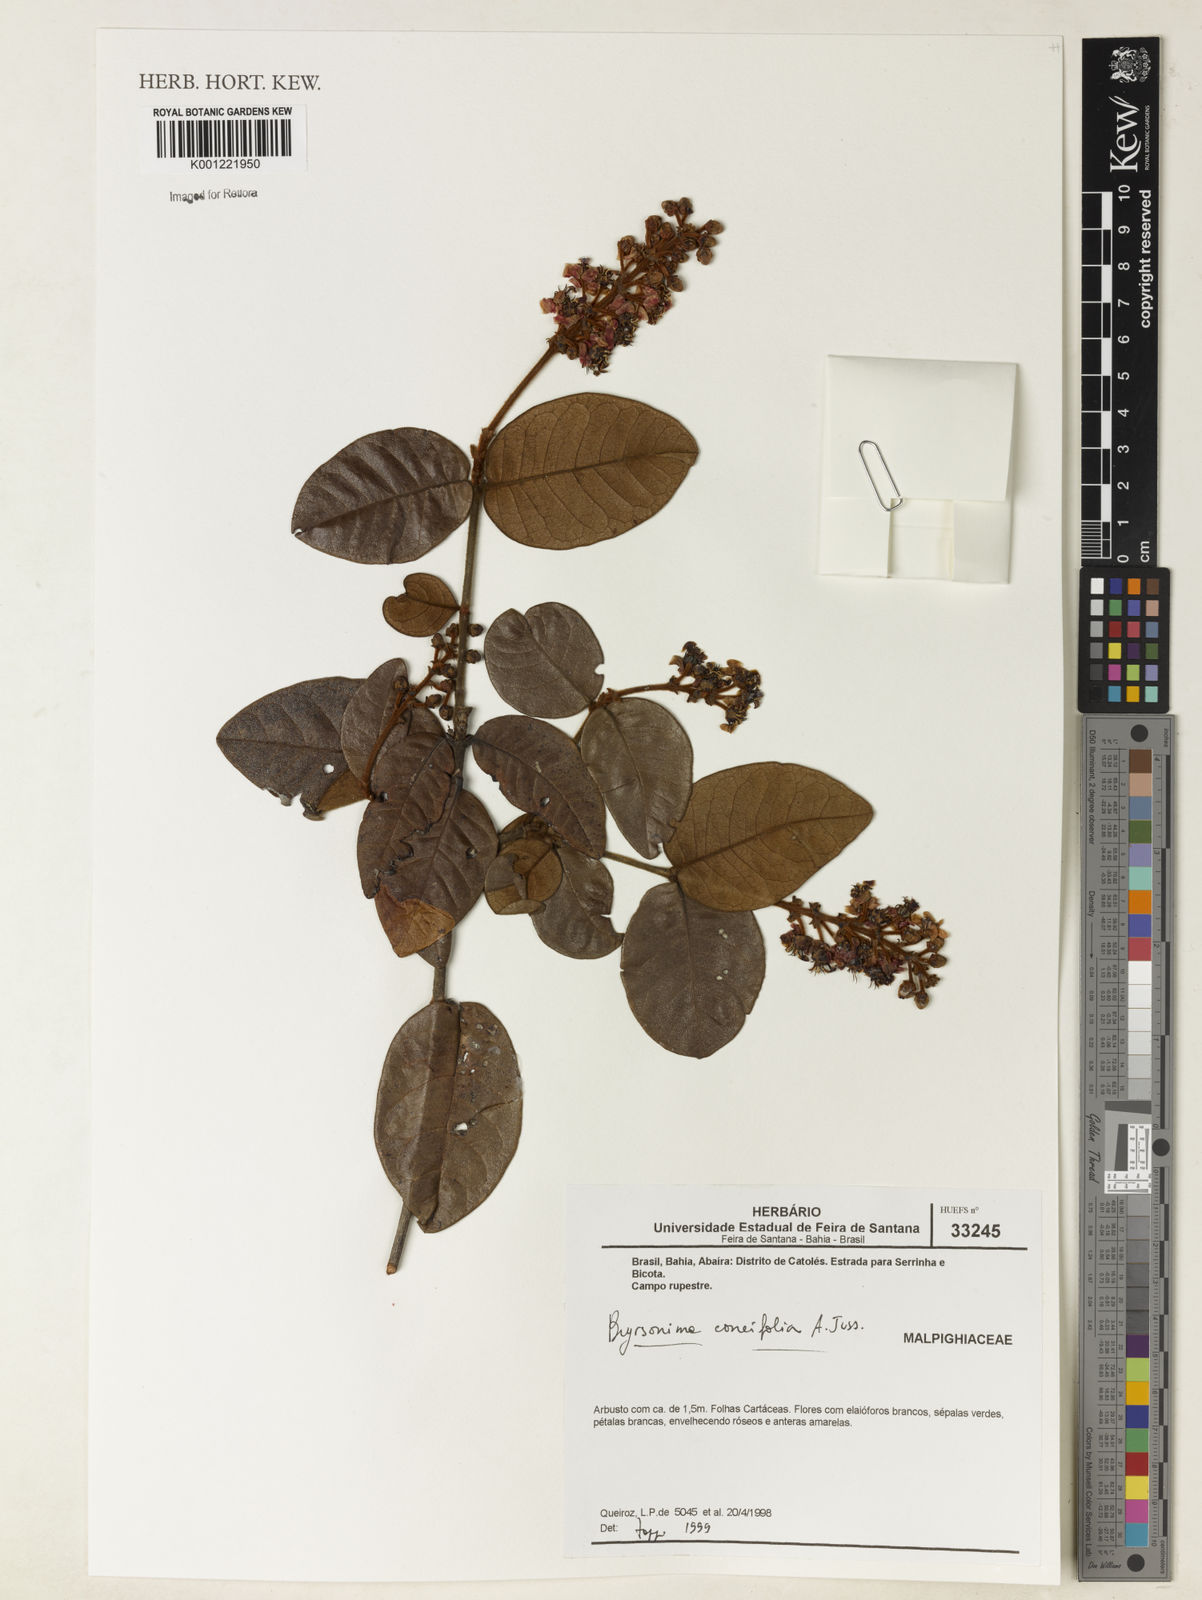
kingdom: Plantae
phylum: Tracheophyta
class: Magnoliopsida
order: Malpighiales
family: Malpighiaceae
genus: Byrsonima
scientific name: Byrsonima correifolia
